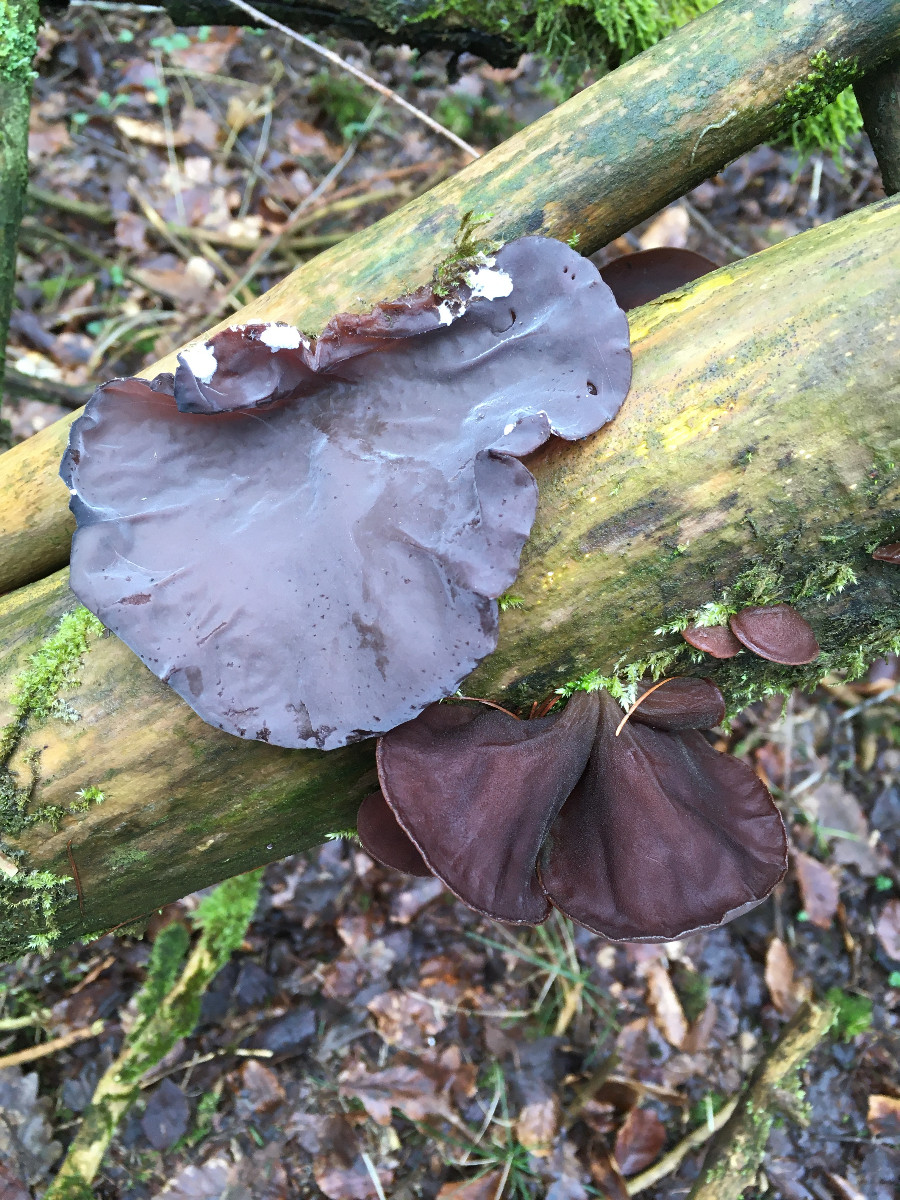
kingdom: Fungi
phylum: Basidiomycota
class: Agaricomycetes
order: Auriculariales
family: Auriculariaceae
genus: Auricularia
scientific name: Auricularia auricula-judae
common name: almindelig judasøre
